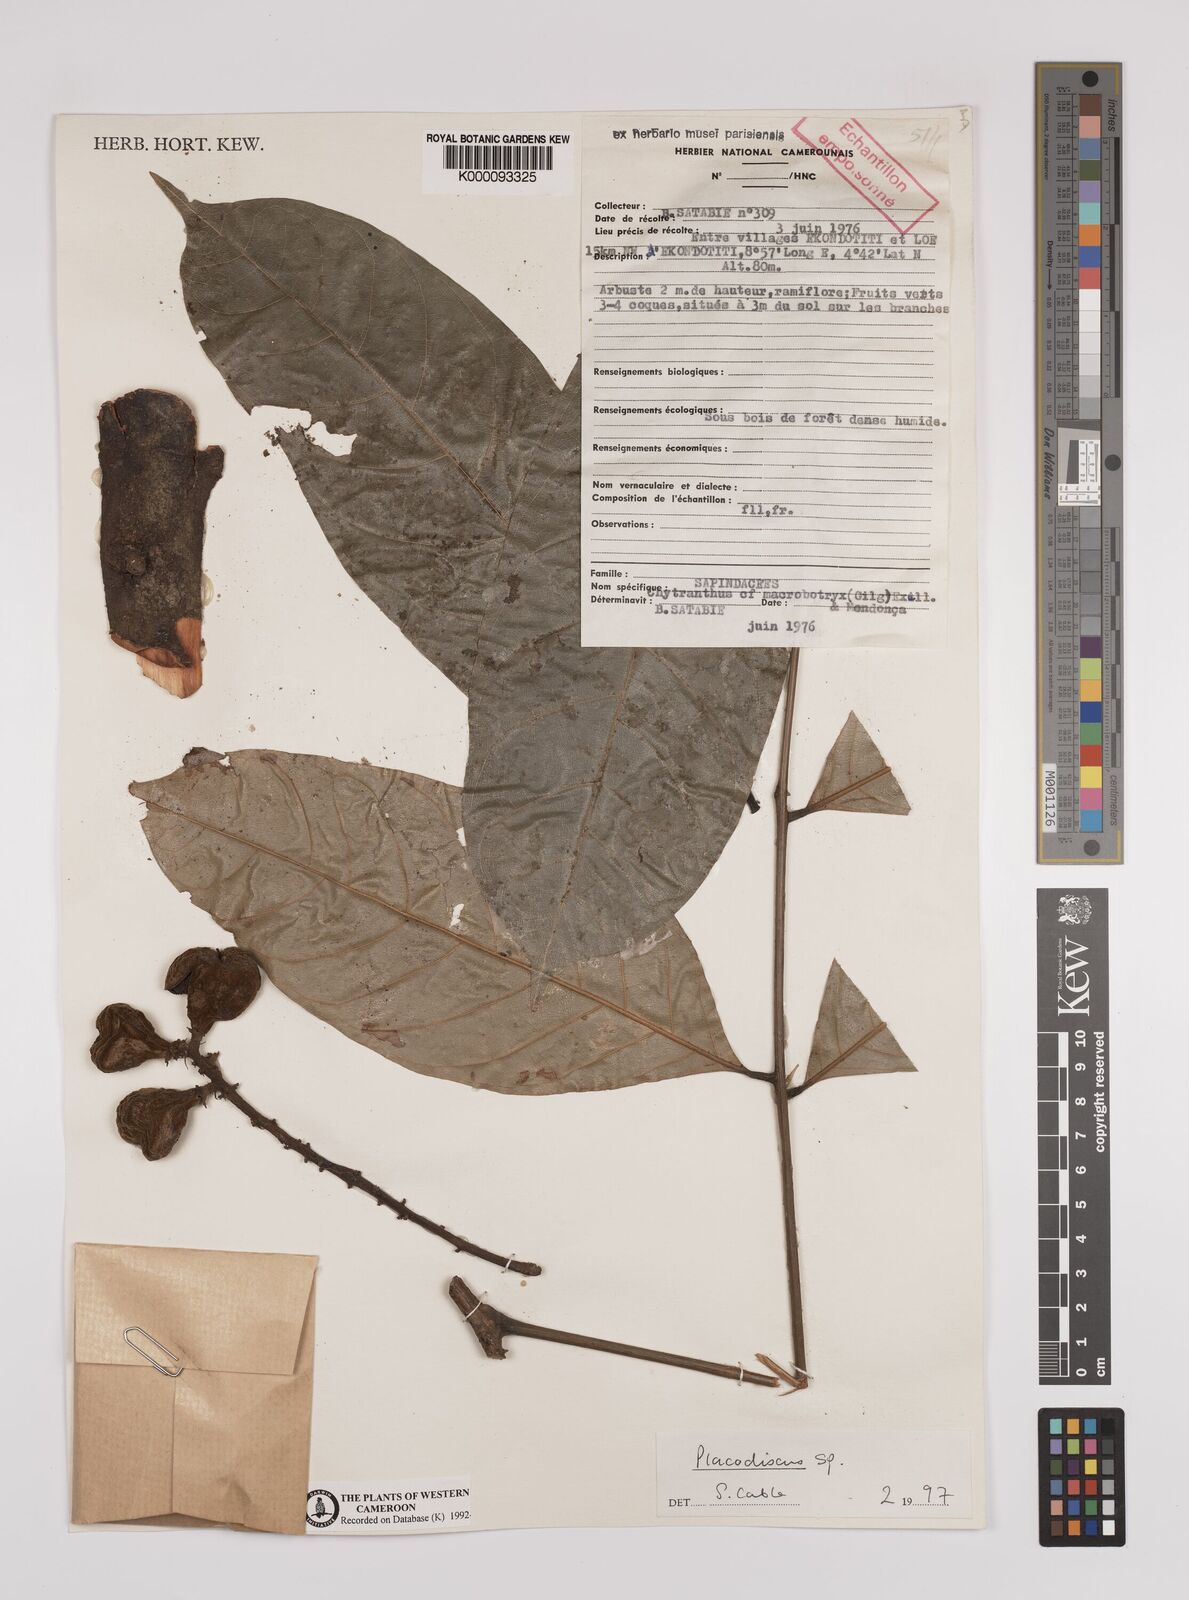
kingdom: Plantae
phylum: Tracheophyta
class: Magnoliopsida
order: Sapindales
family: Sapindaceae
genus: Placodiscus
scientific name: Placodiscus
